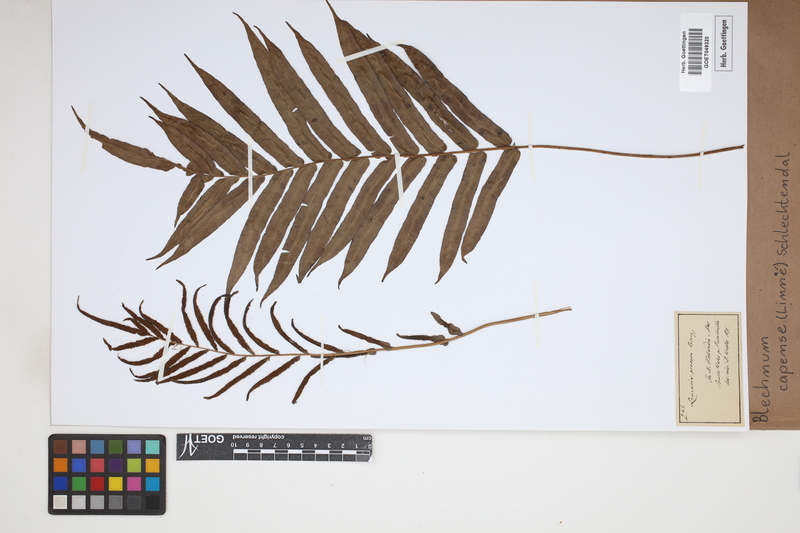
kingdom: Plantae
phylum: Tracheophyta
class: Polypodiopsida
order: Polypodiales
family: Blechnaceae
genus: Parablechnum
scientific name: Parablechnum capense
